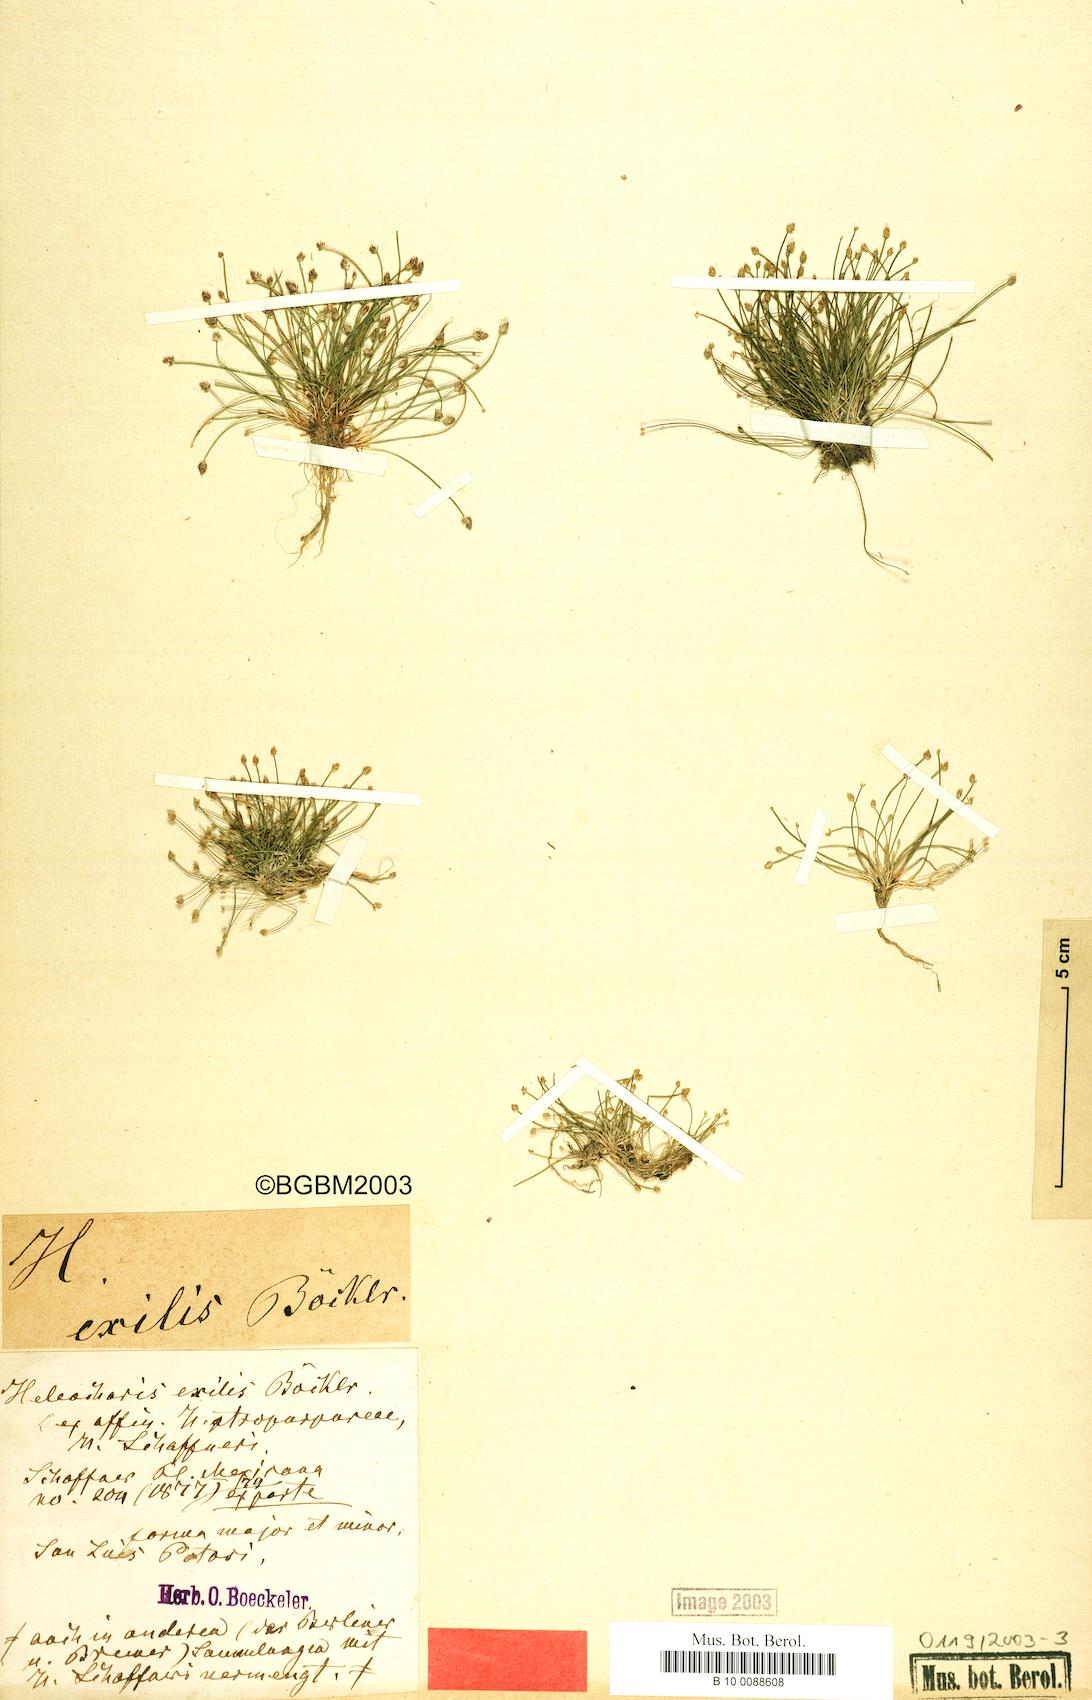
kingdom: Plantae
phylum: Tracheophyta
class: Liliopsida
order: Poales
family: Cyperaceae
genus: Eleocharis
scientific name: Eleocharis schaffneri
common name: Schaffner's spikerush
